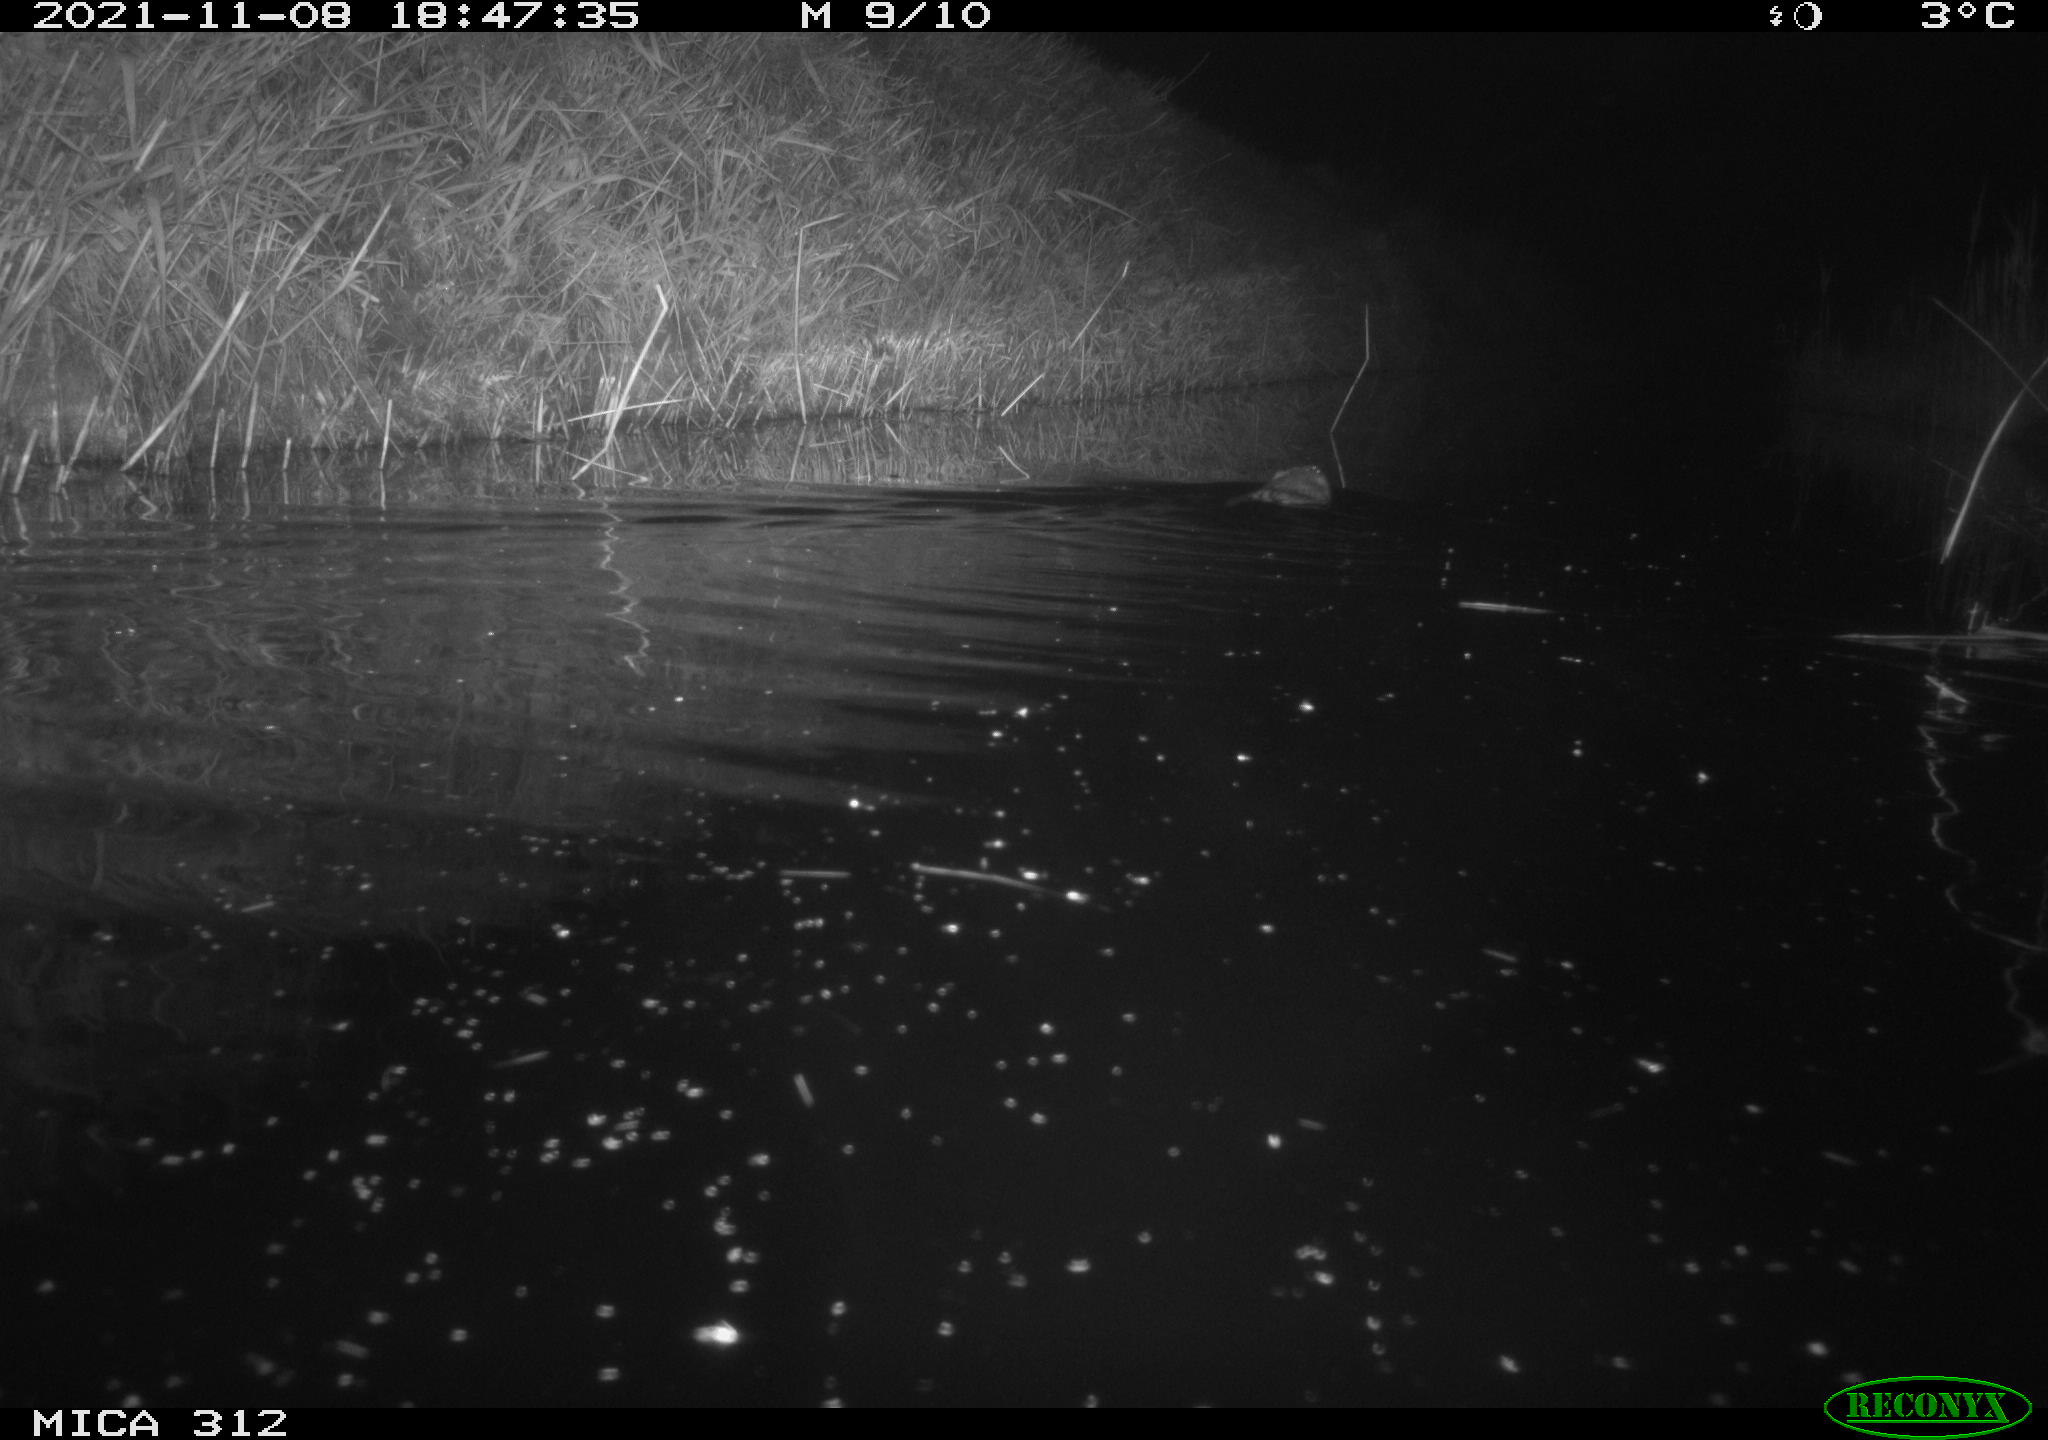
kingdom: Animalia
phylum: Chordata
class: Mammalia
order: Rodentia
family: Cricetidae
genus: Ondatra
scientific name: Ondatra zibethicus
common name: Muskrat
